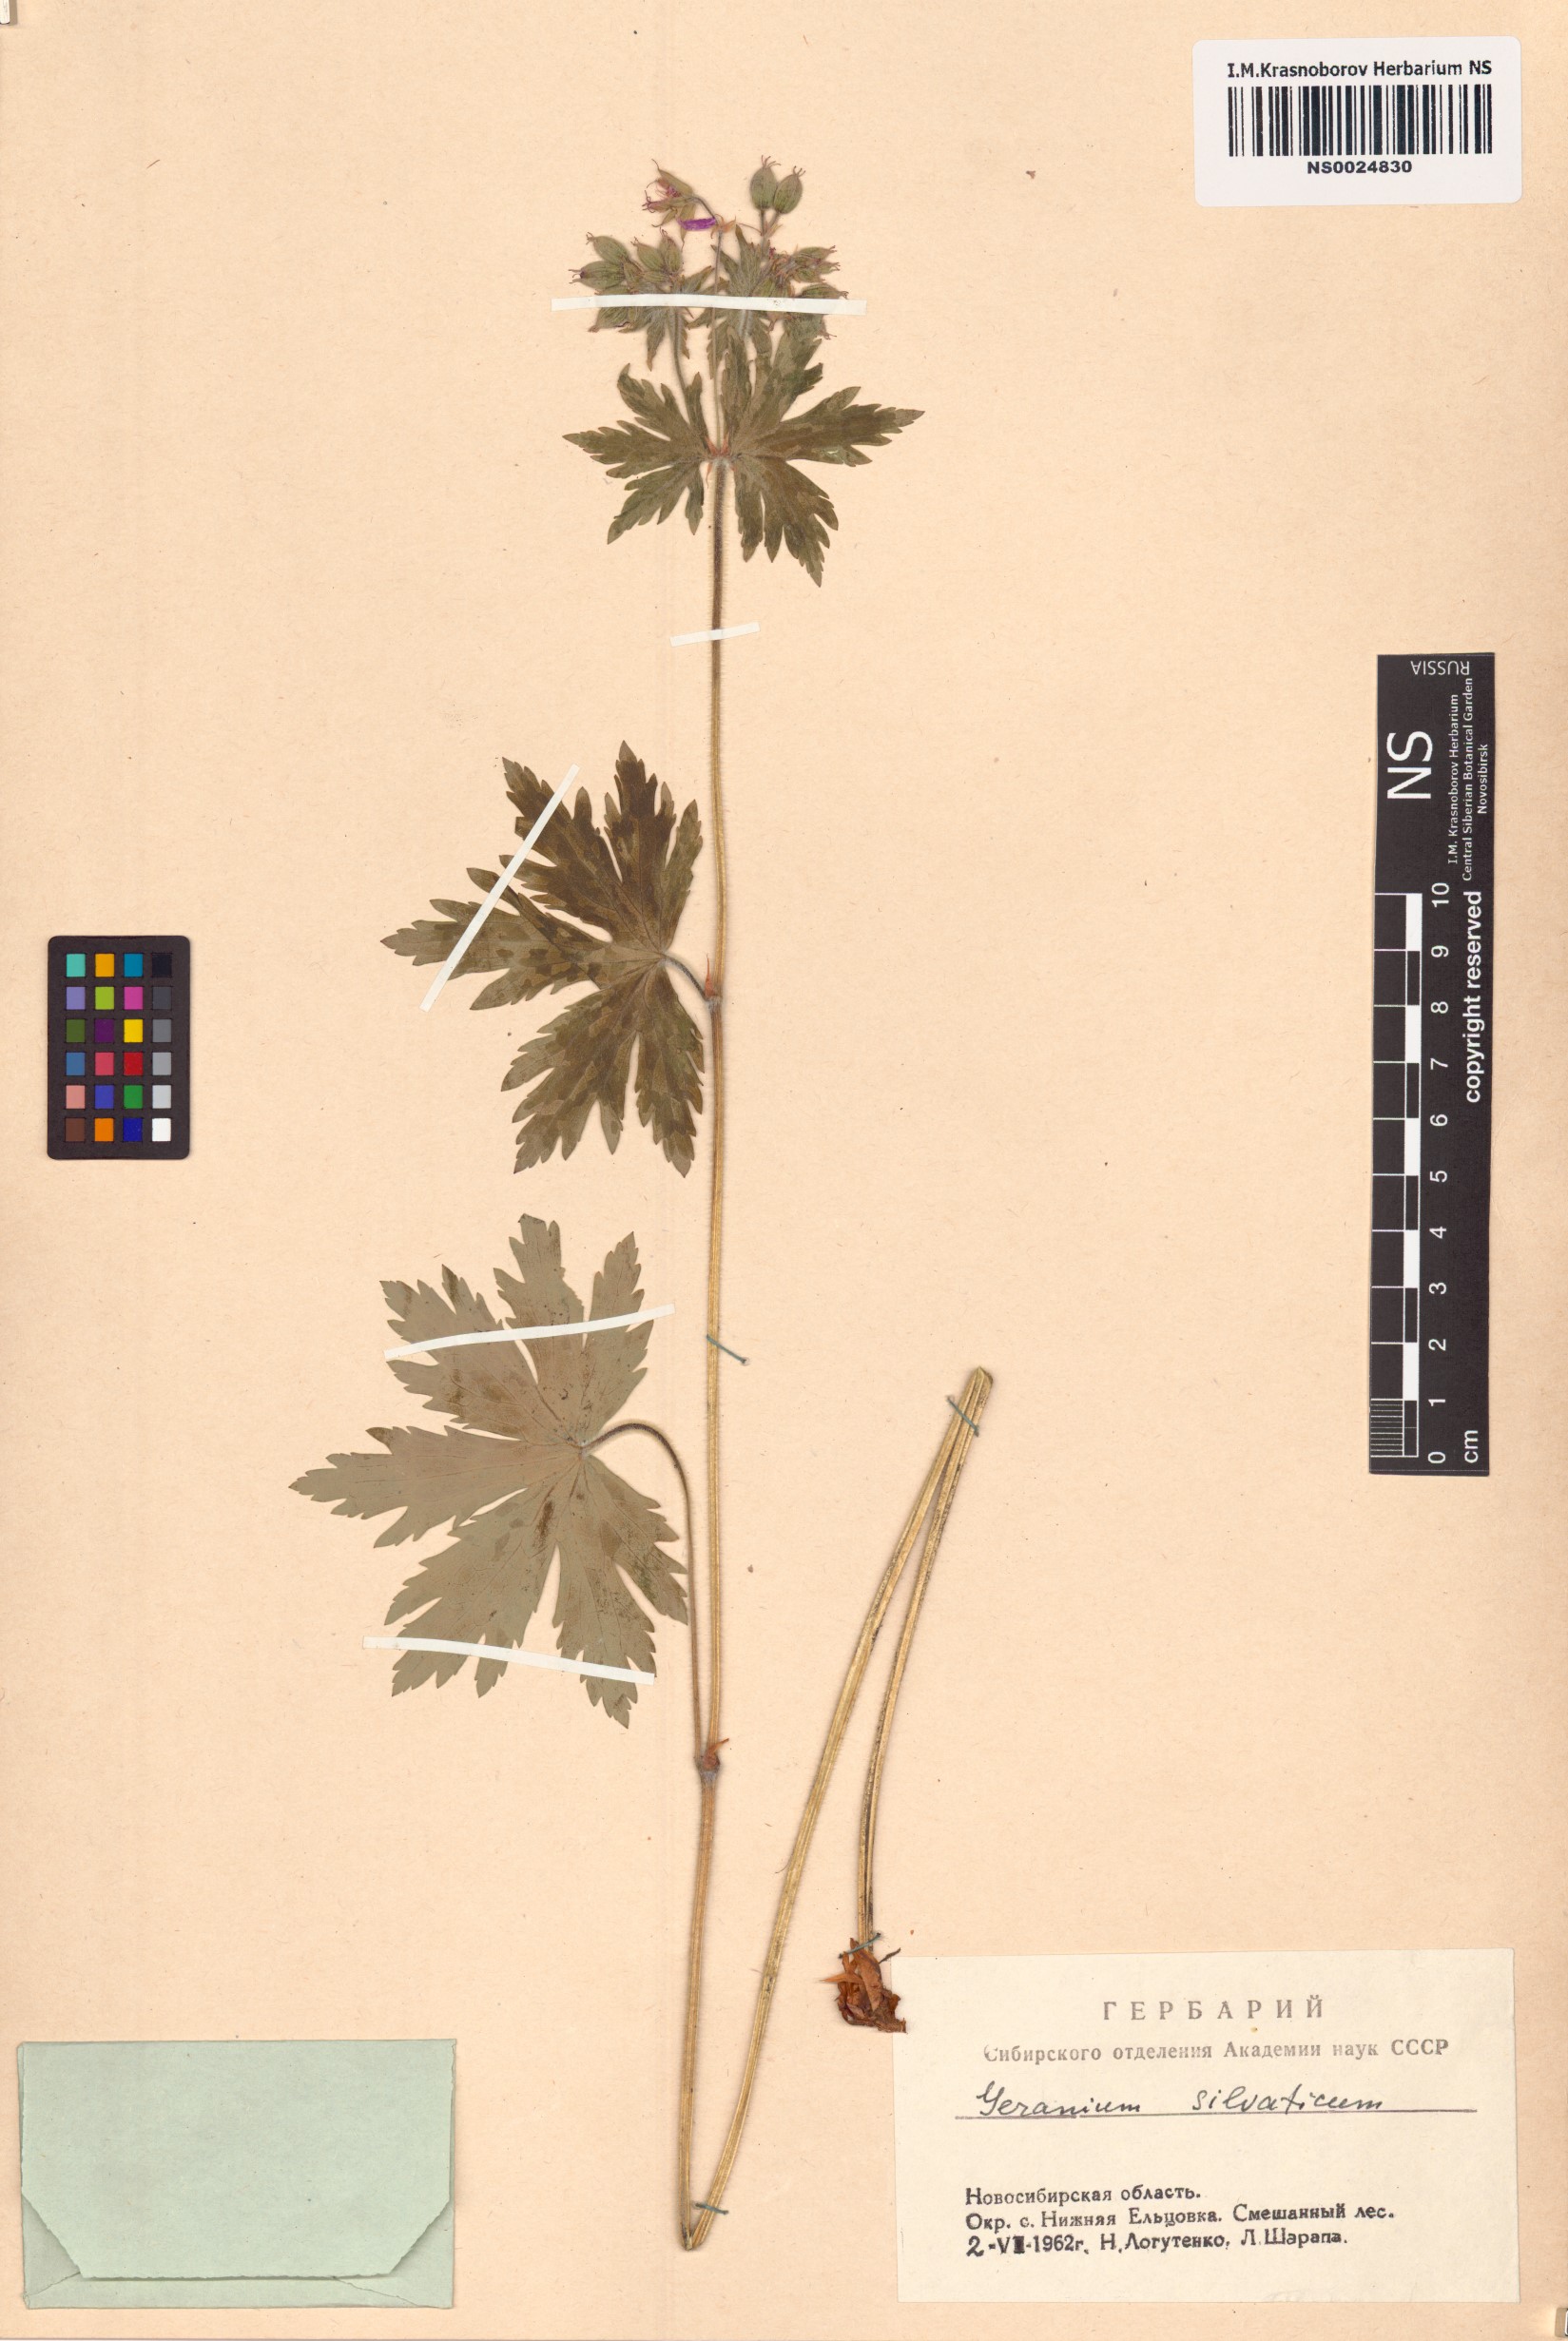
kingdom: Plantae
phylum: Tracheophyta
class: Magnoliopsida
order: Geraniales
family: Geraniaceae
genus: Geranium
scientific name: Geranium sylvaticum
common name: Wood crane's-bill
